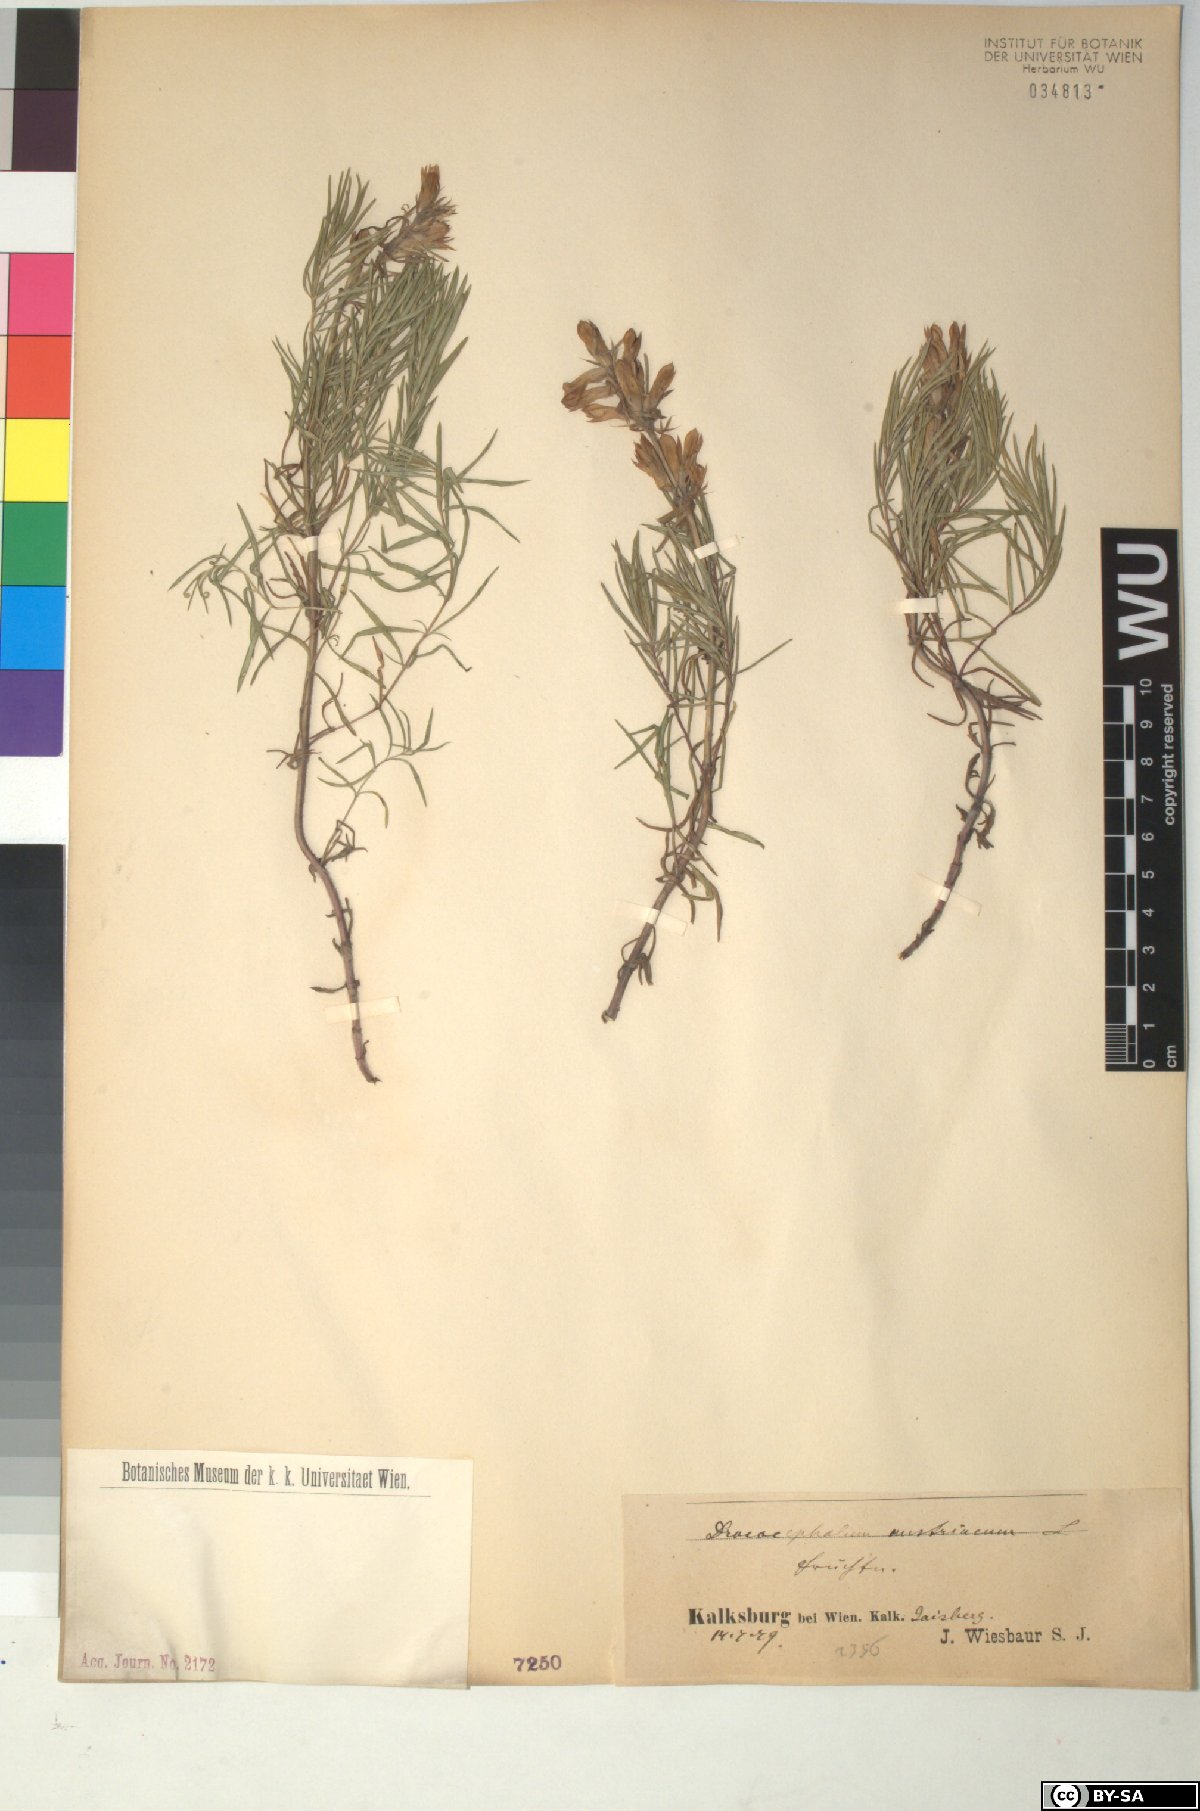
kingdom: Plantae
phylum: Tracheophyta
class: Magnoliopsida
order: Lamiales
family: Lamiaceae
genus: Dracocephalum
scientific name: Dracocephalum austriacum
